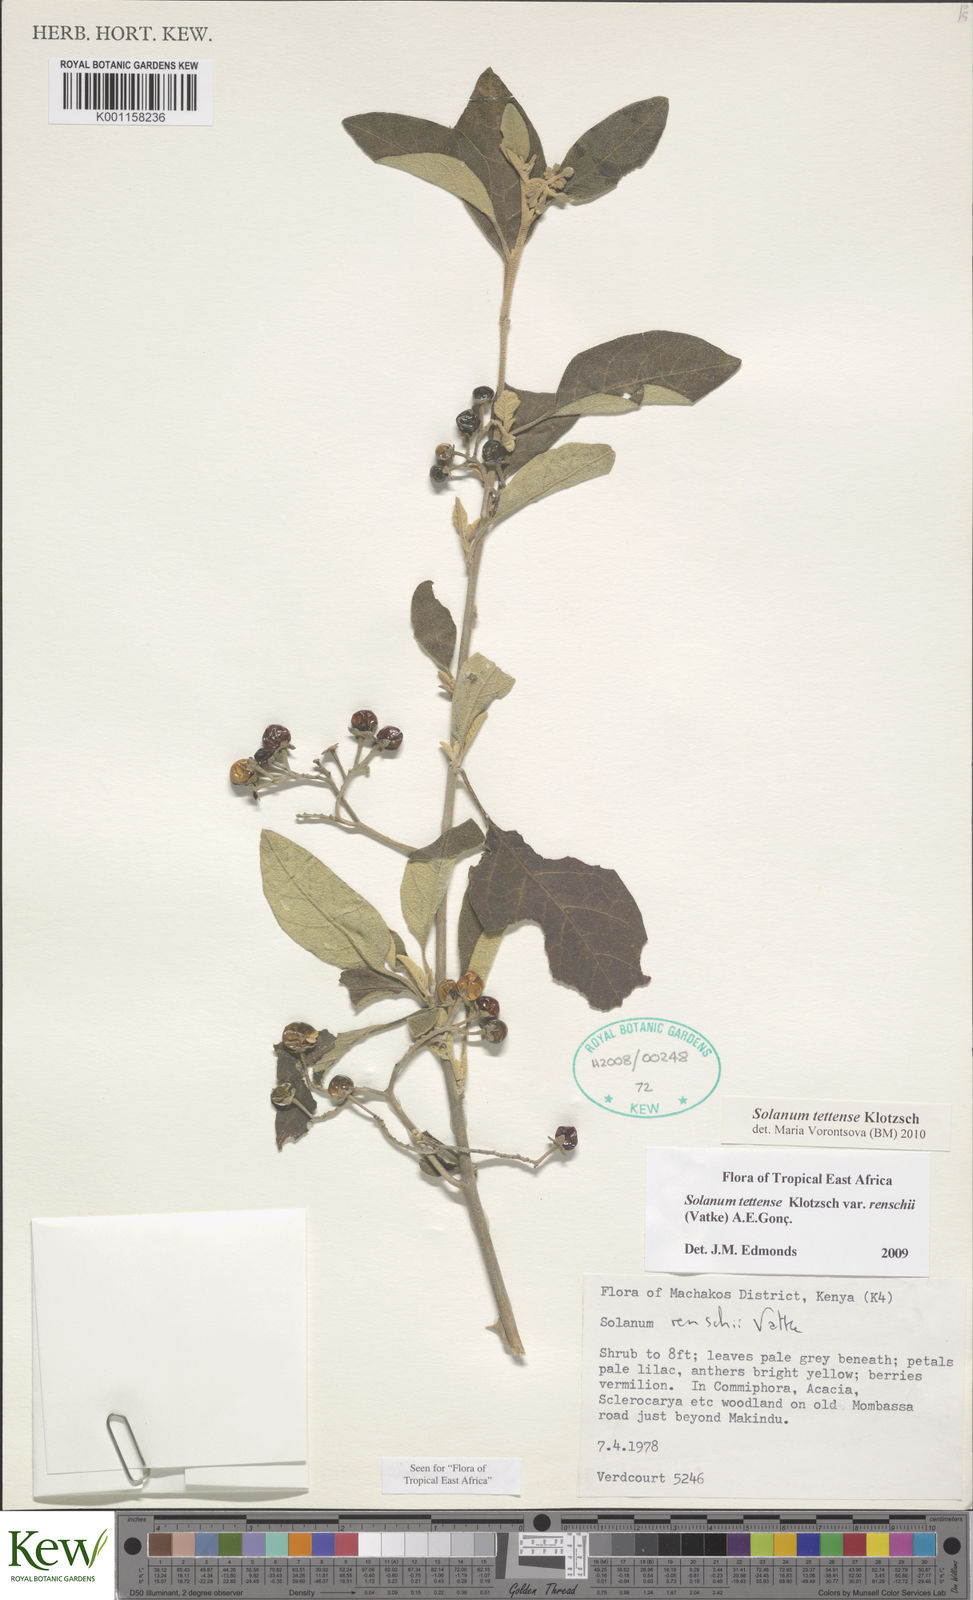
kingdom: Plantae
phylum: Tracheophyta
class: Magnoliopsida
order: Solanales
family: Solanaceae
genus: Solanum
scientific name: Solanum tettense
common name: Mozambique bitter apple
